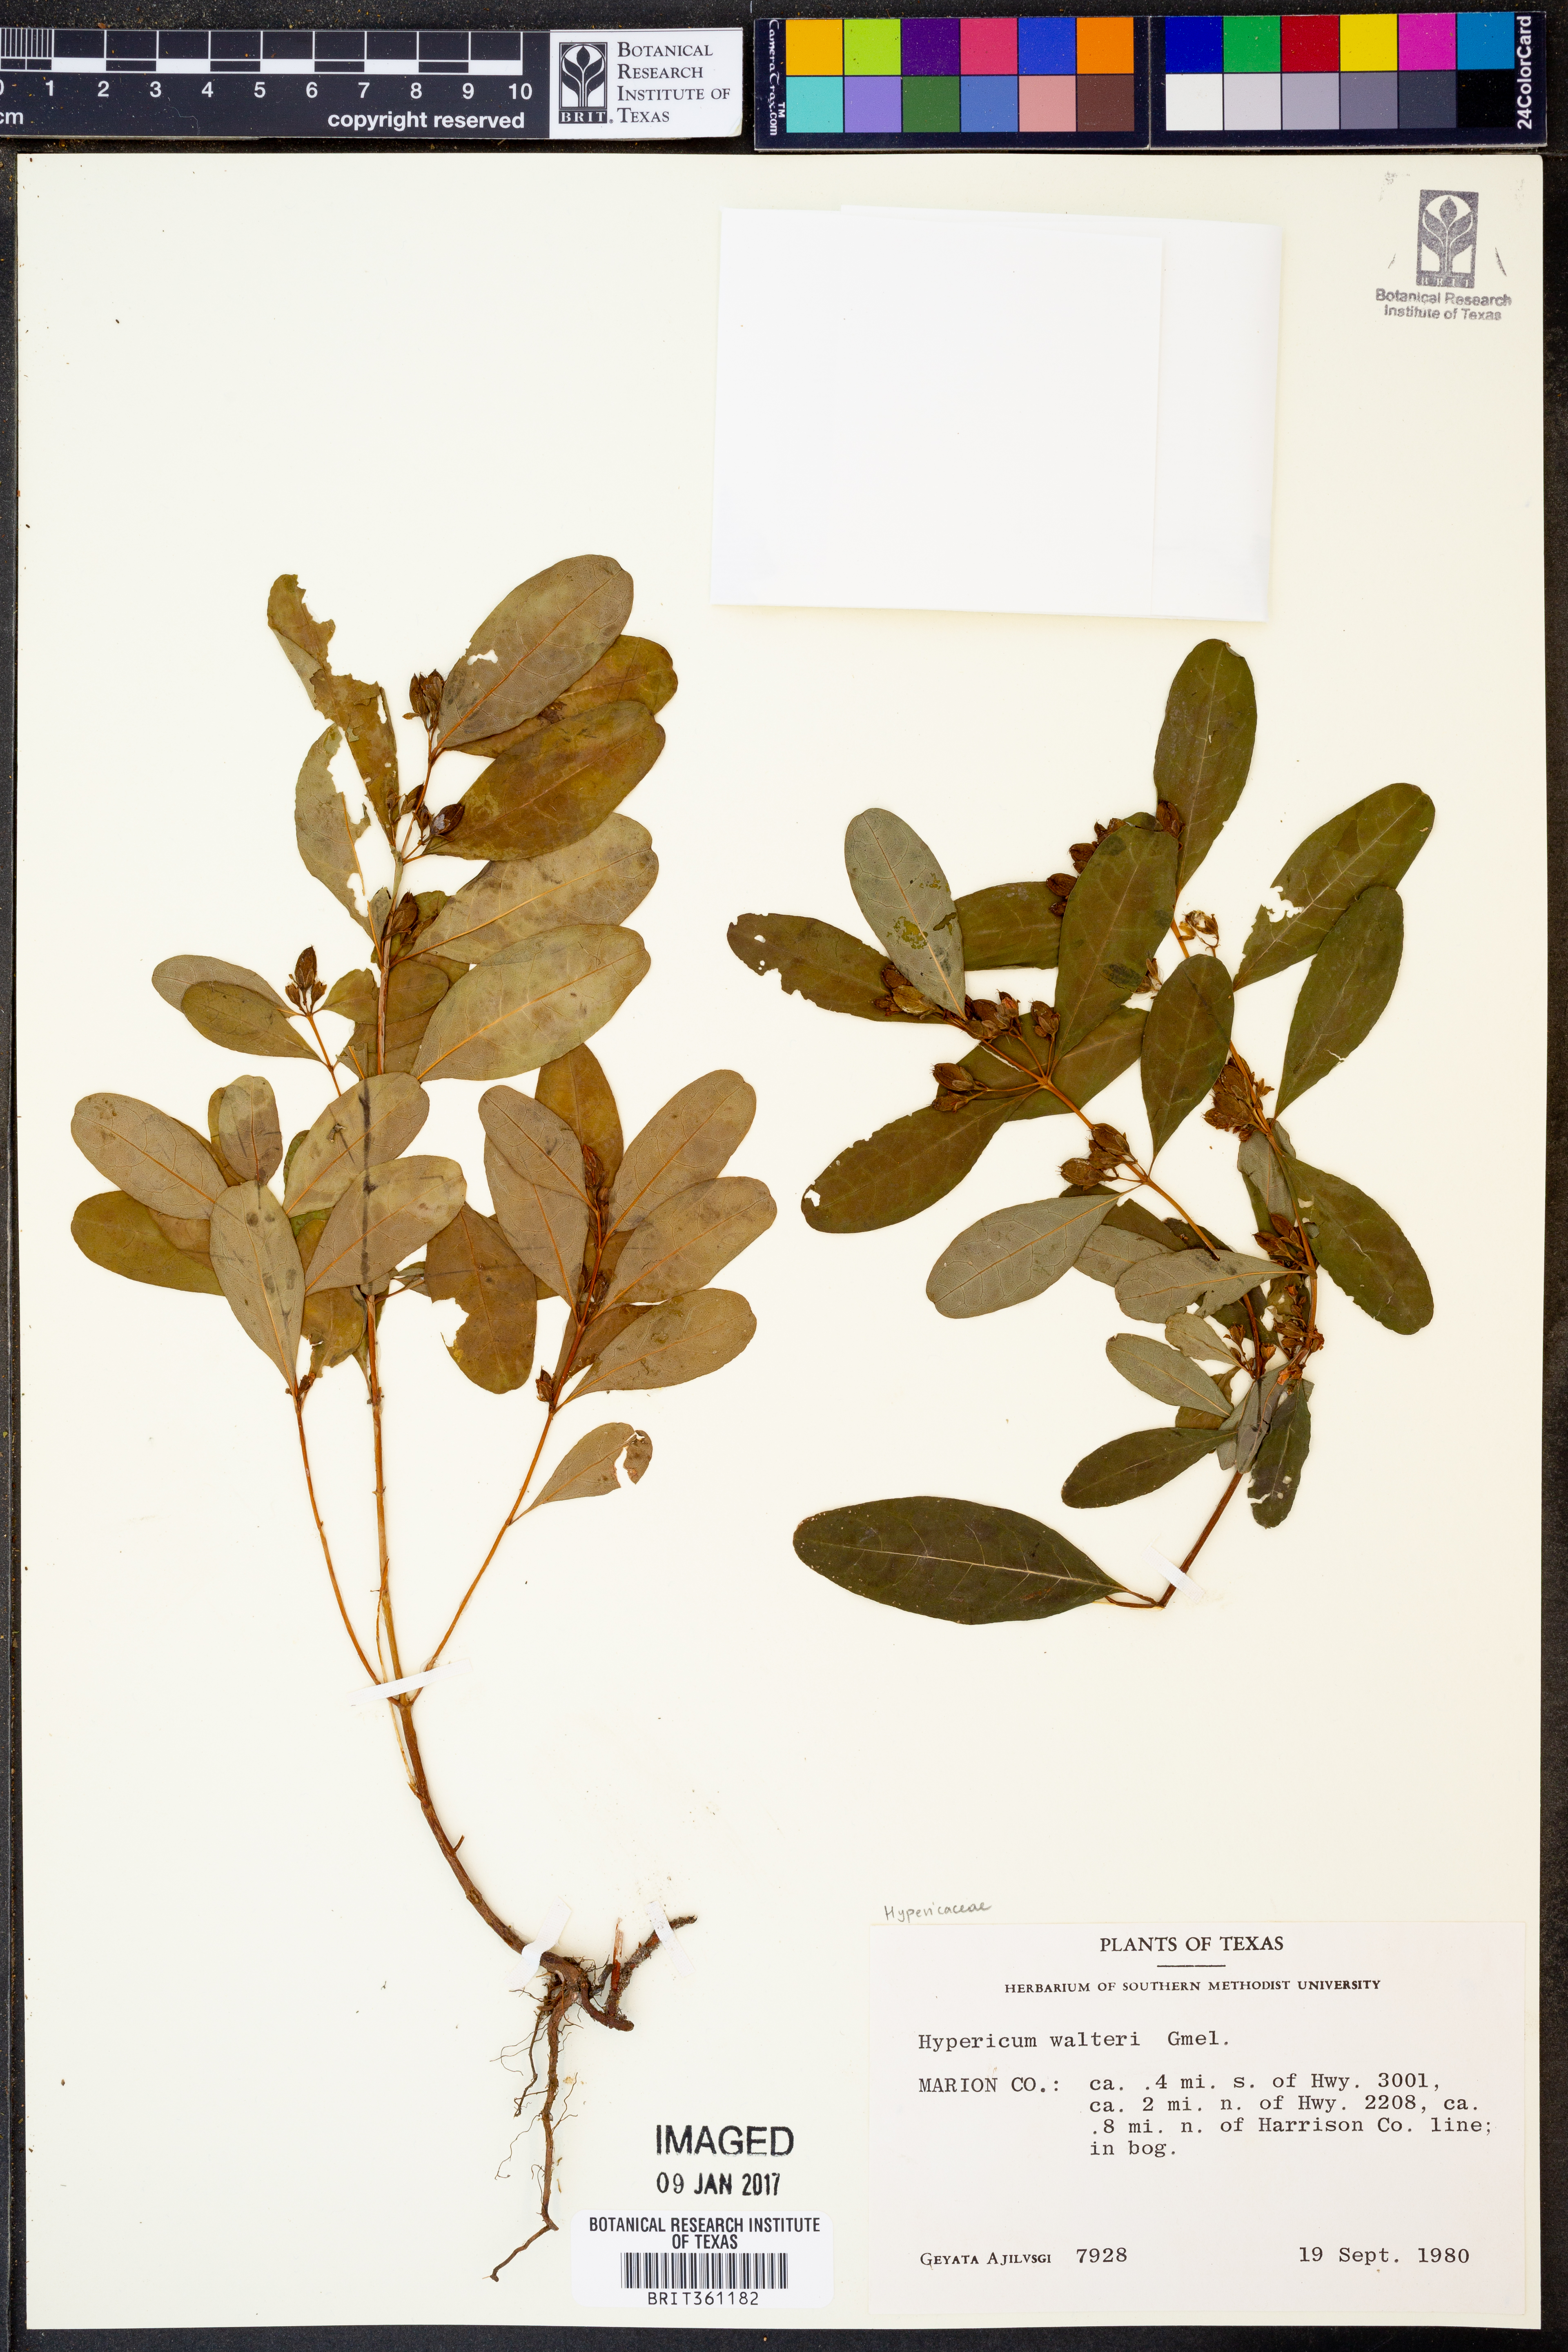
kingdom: Plantae
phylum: Tracheophyta
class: Magnoliopsida
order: Malpighiales
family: Hypericaceae
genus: Triadenum
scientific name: Triadenum walteri
